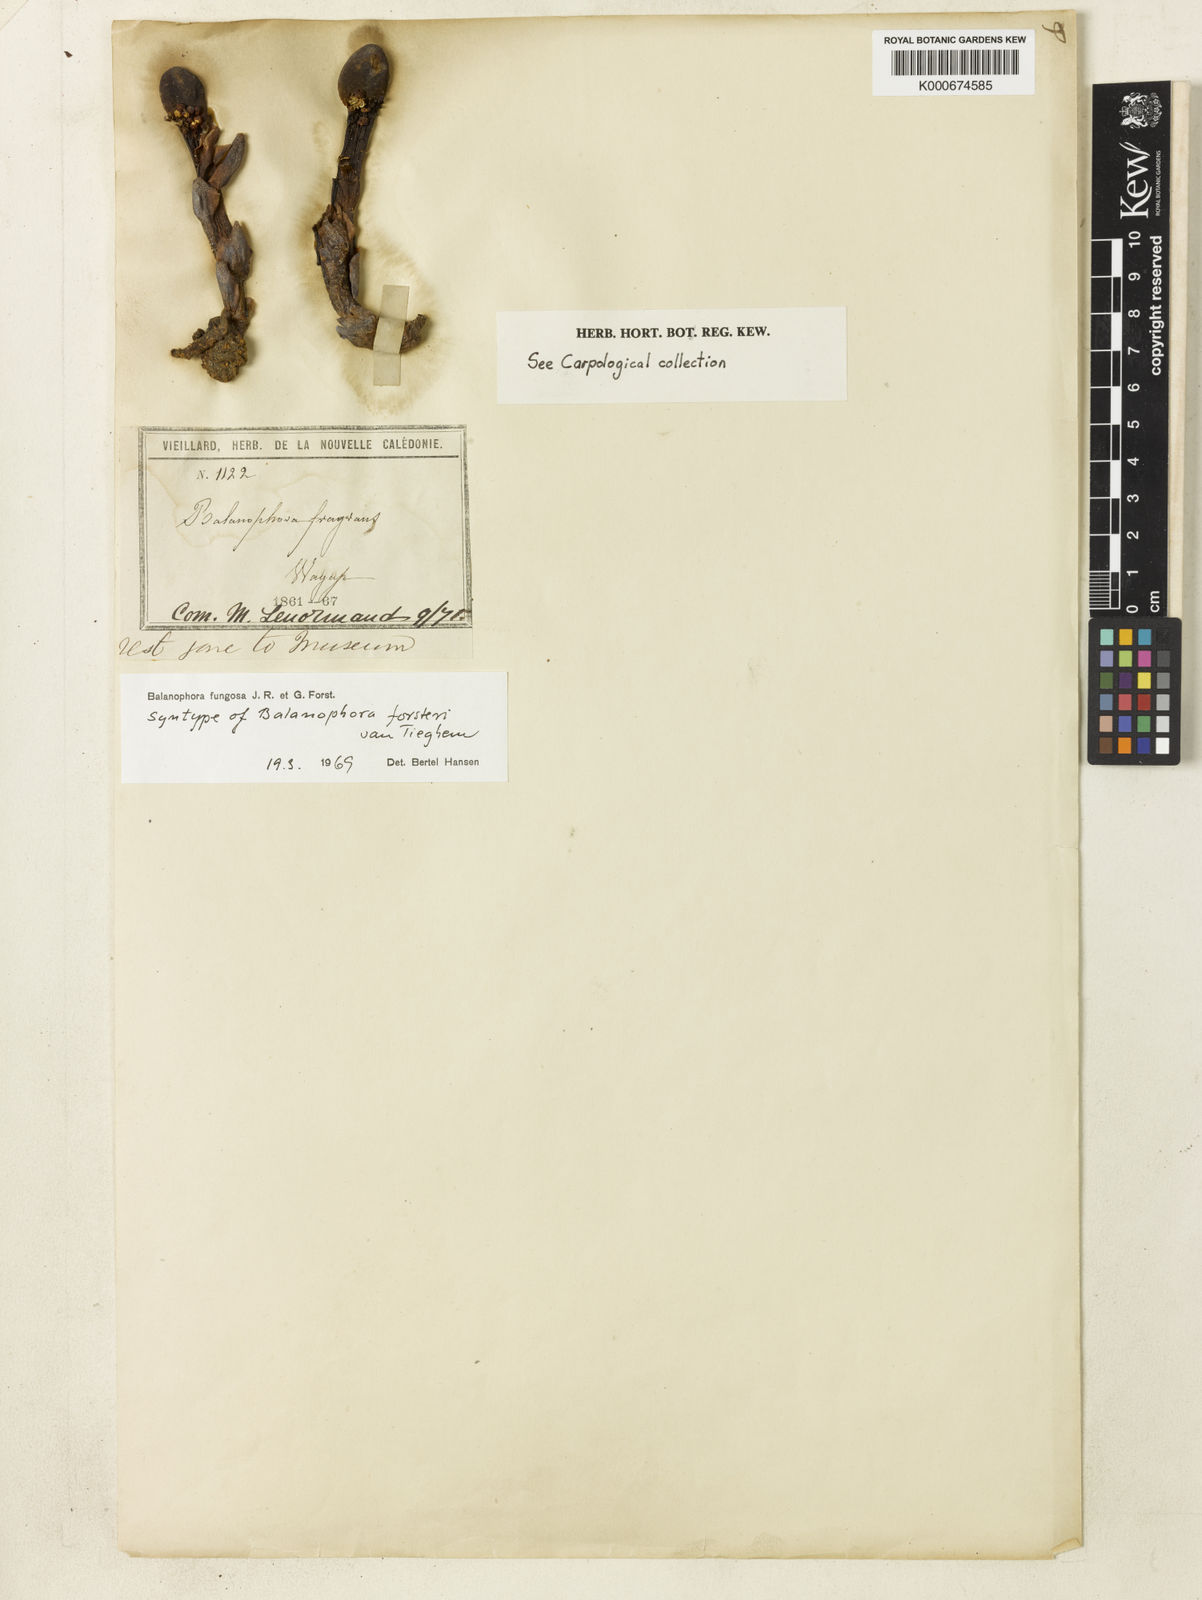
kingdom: Plantae
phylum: Tracheophyta
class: Magnoliopsida
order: Santalales
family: Balanophoraceae
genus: Balanophora
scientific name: Balanophora fungosa
